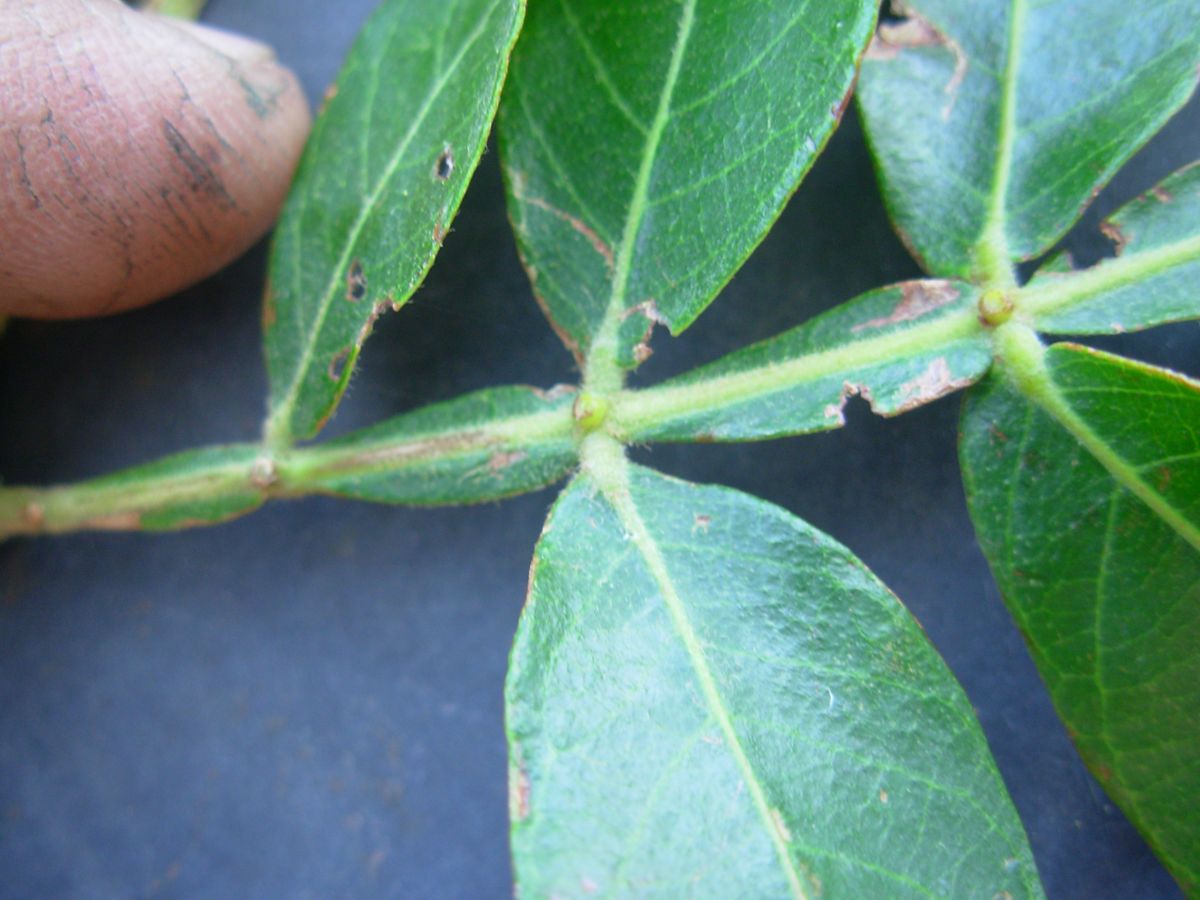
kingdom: Plantae
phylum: Tracheophyta
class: Magnoliopsida
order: Fabales
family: Fabaceae
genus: Inga
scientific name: Inga vera
